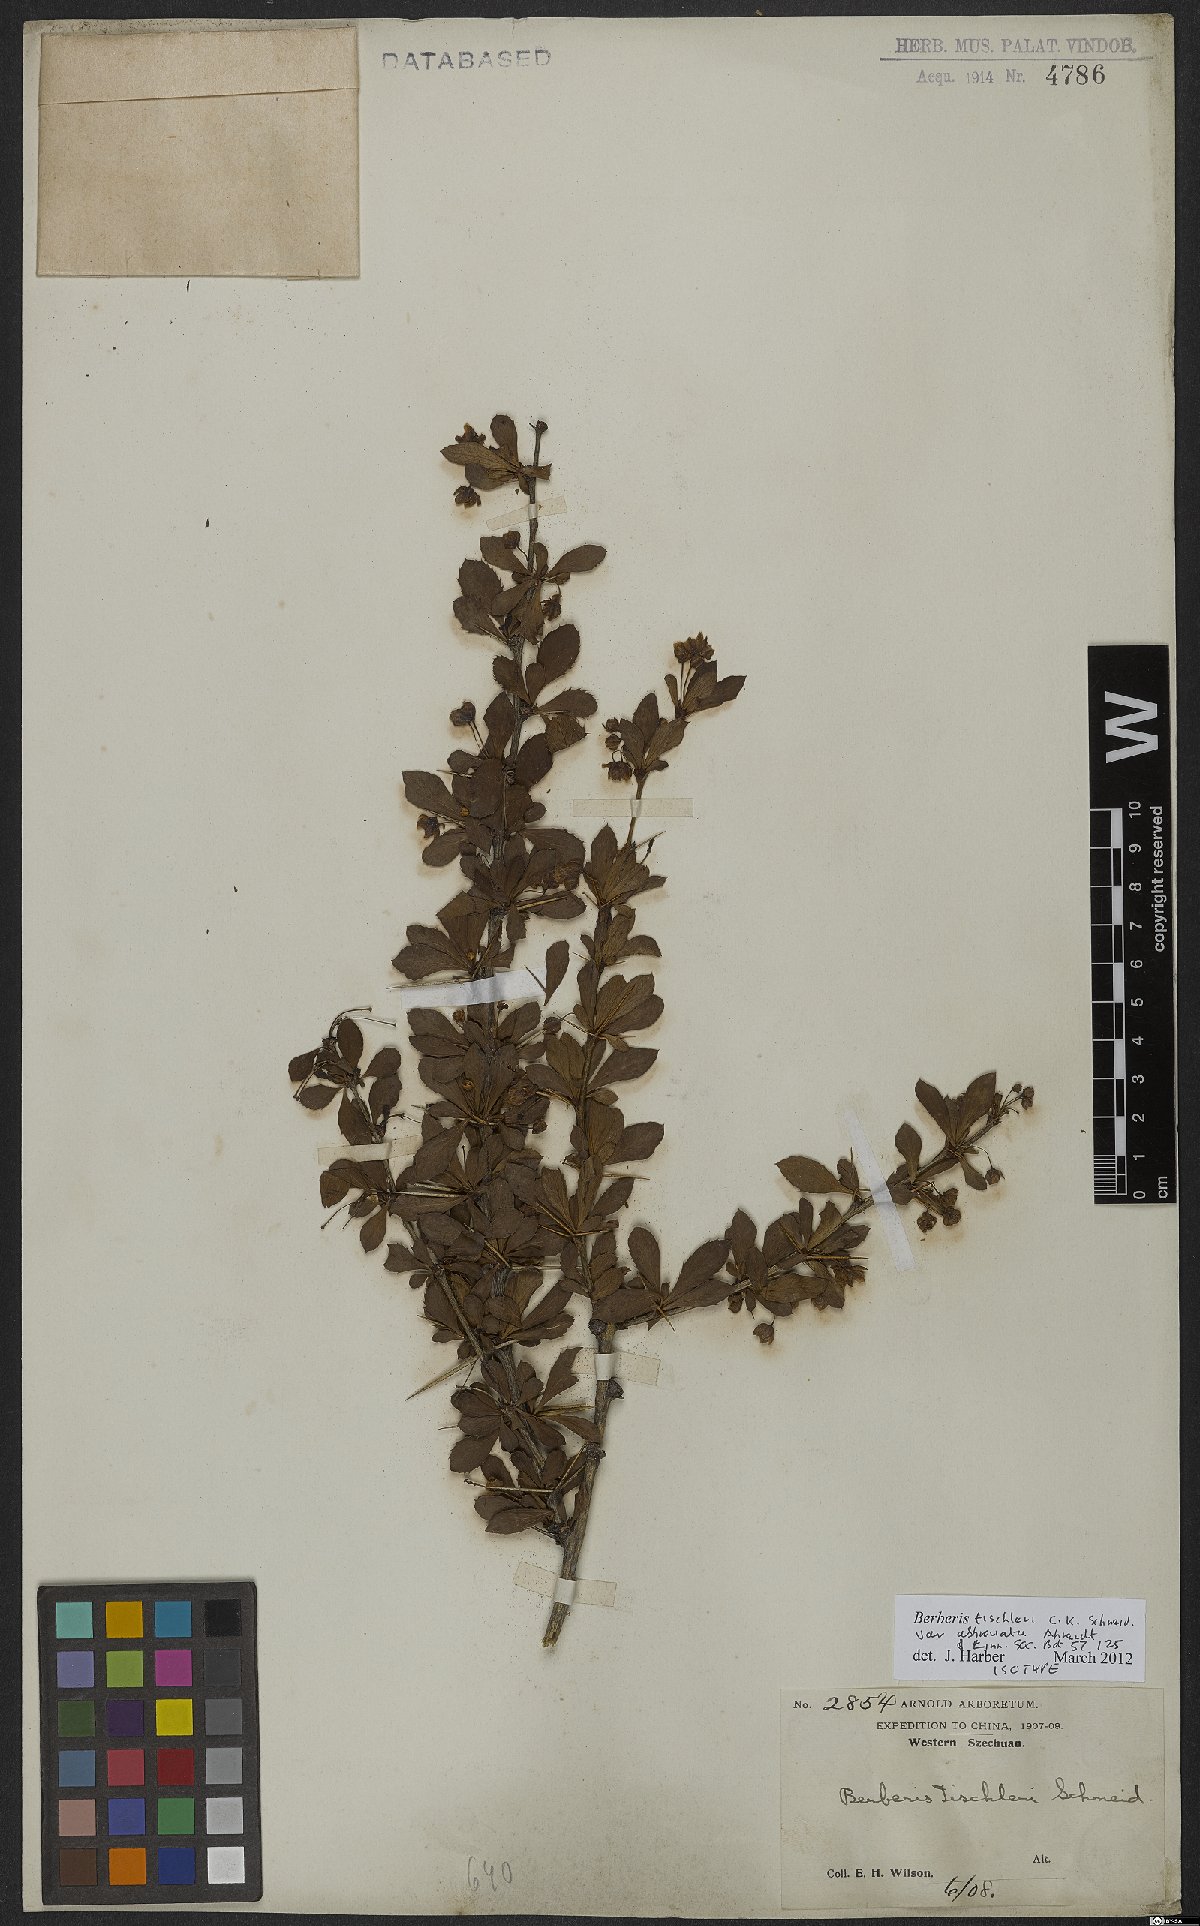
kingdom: Plantae
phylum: Tracheophyta
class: Magnoliopsida
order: Ranunculales
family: Berberidaceae
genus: Berberis
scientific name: Berberis tischleri
